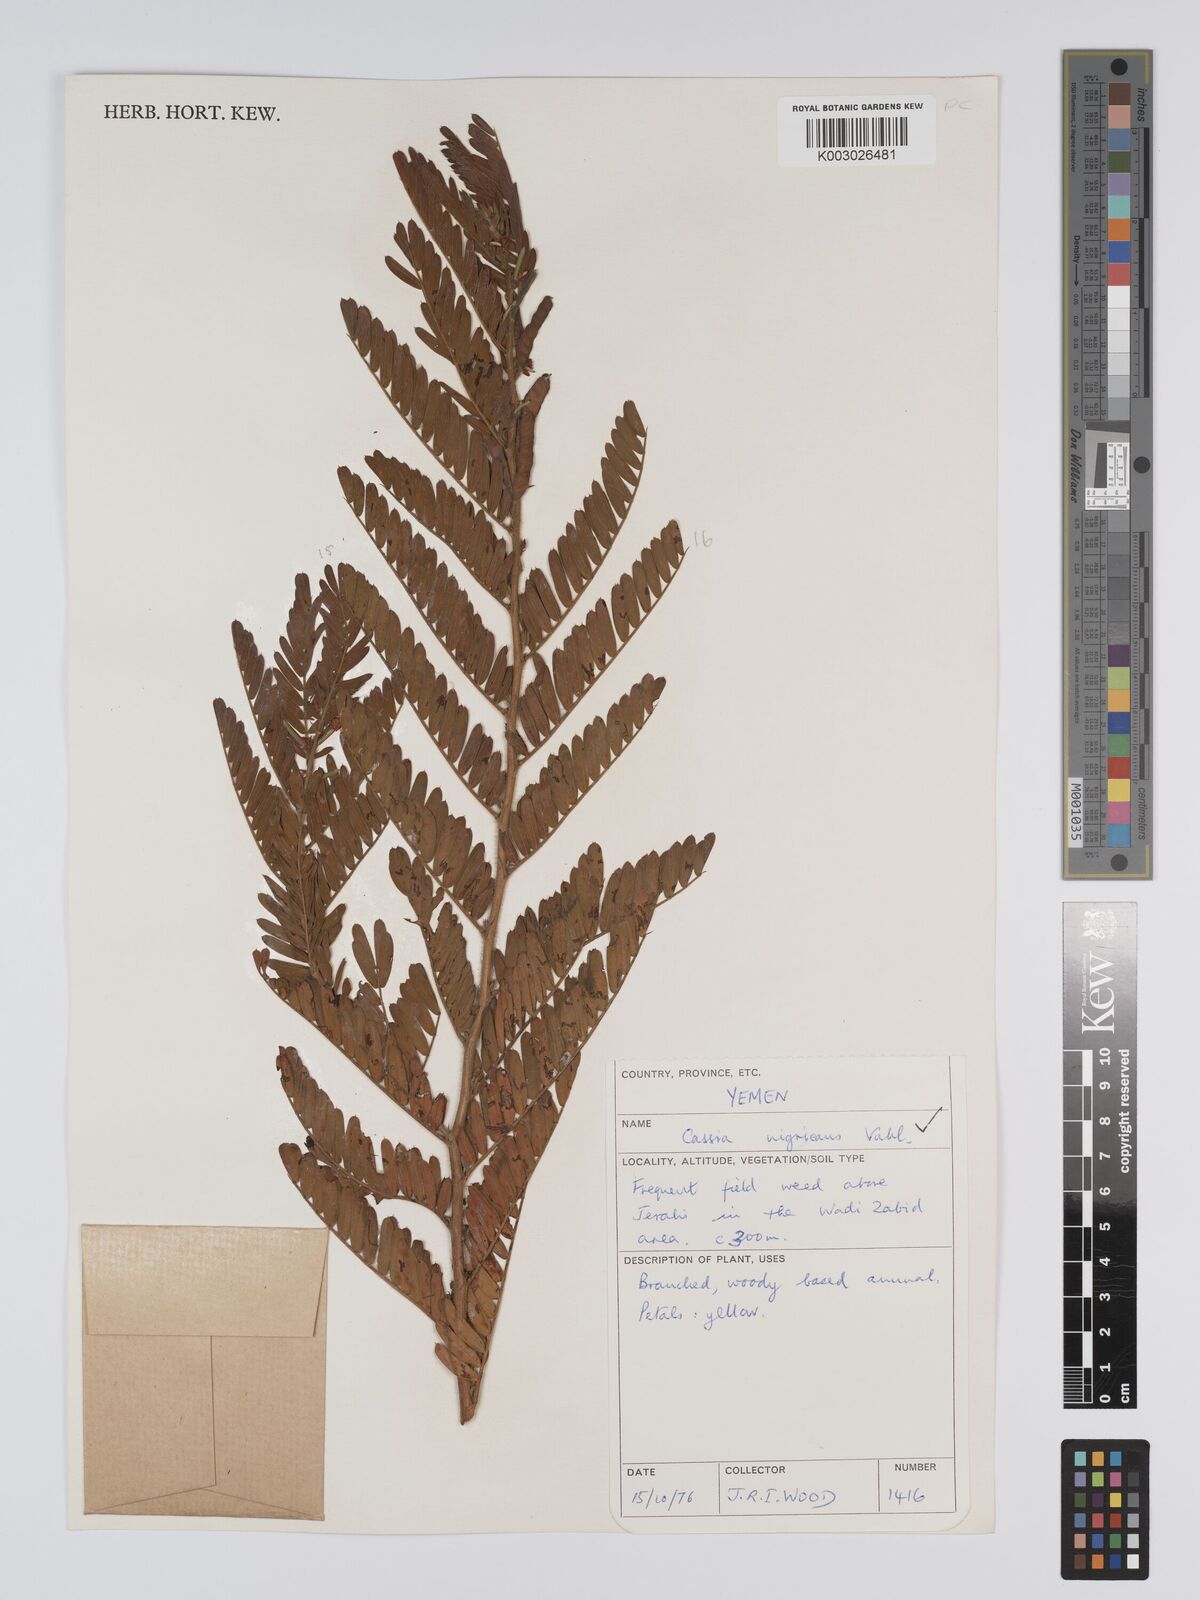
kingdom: Plantae
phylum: Tracheophyta
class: Magnoliopsida
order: Fabales
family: Fabaceae
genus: Chamaecrista
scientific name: Chamaecrista nigricans
